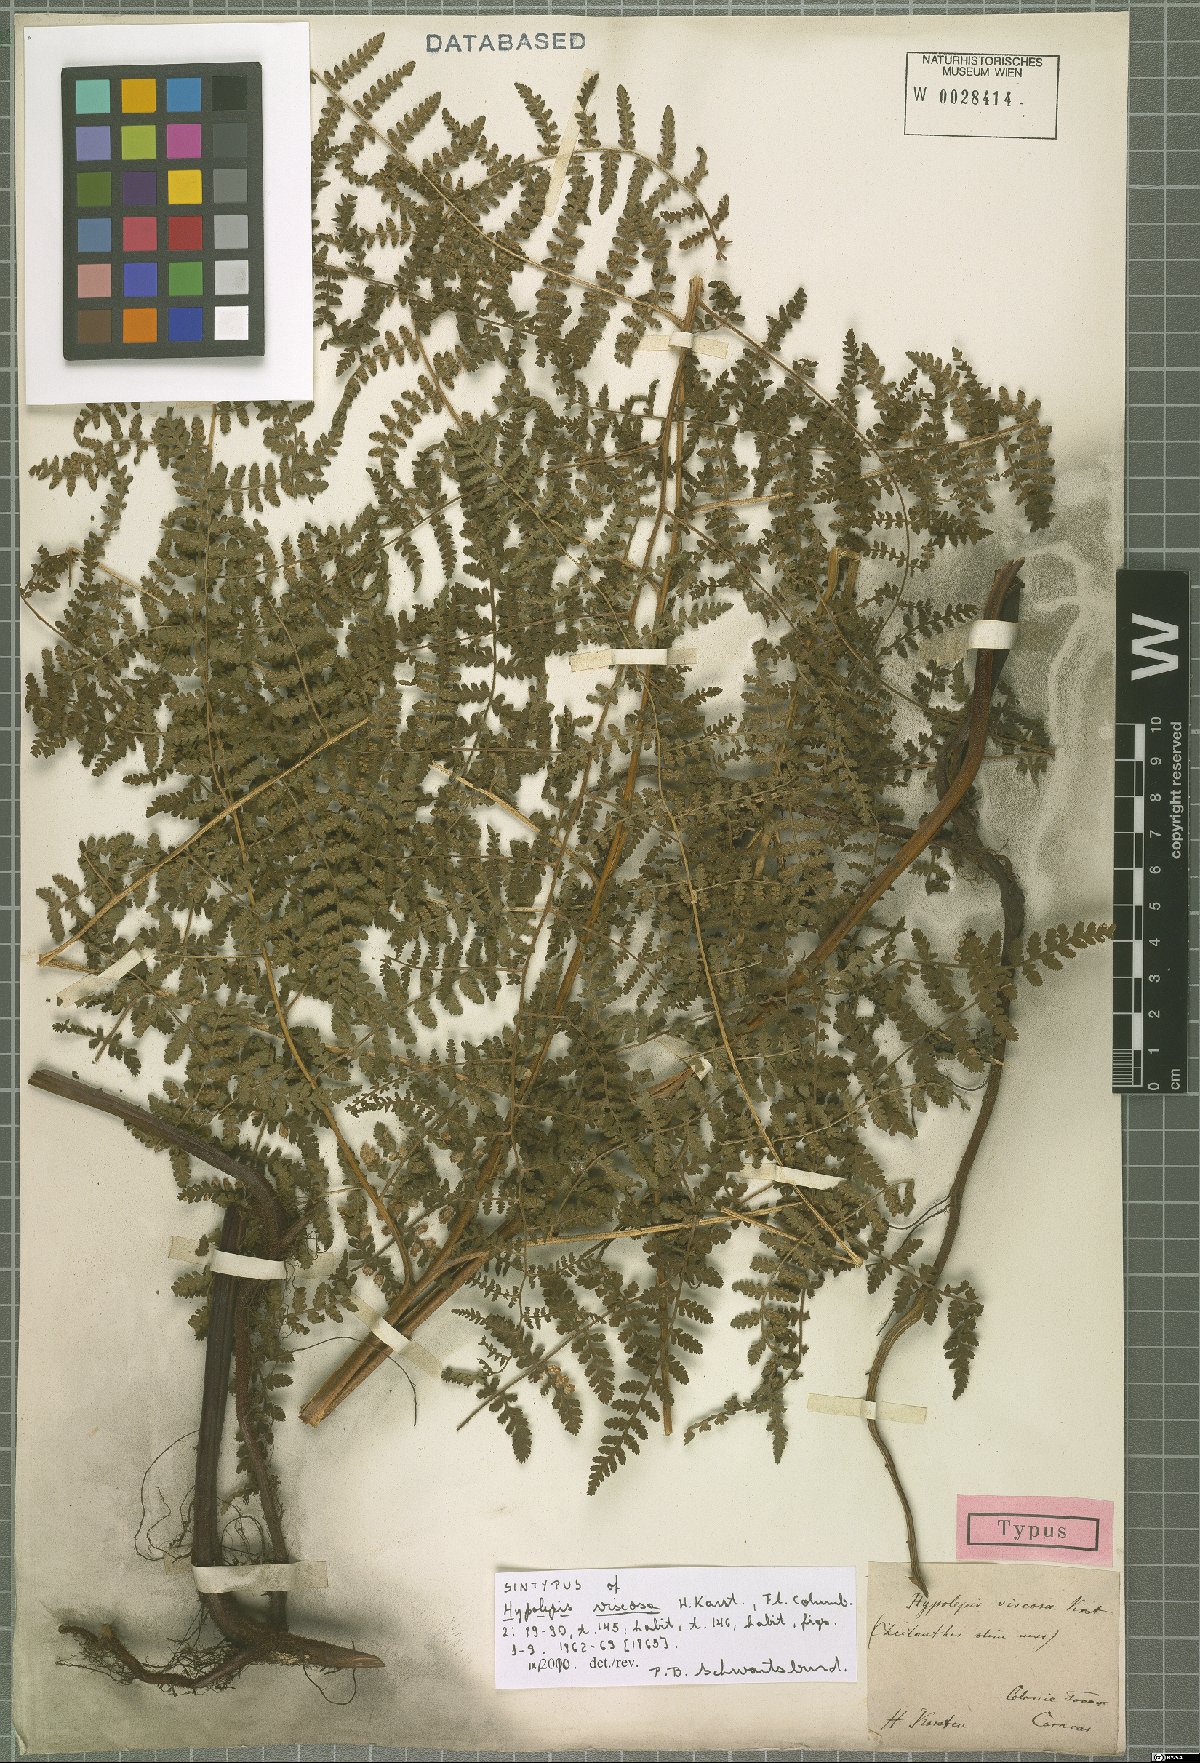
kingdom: Plantae
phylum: Tracheophyta
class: Polypodiopsida
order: Polypodiales
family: Dennstaedtiaceae
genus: Hypolepis
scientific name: Hypolepis viscosa
